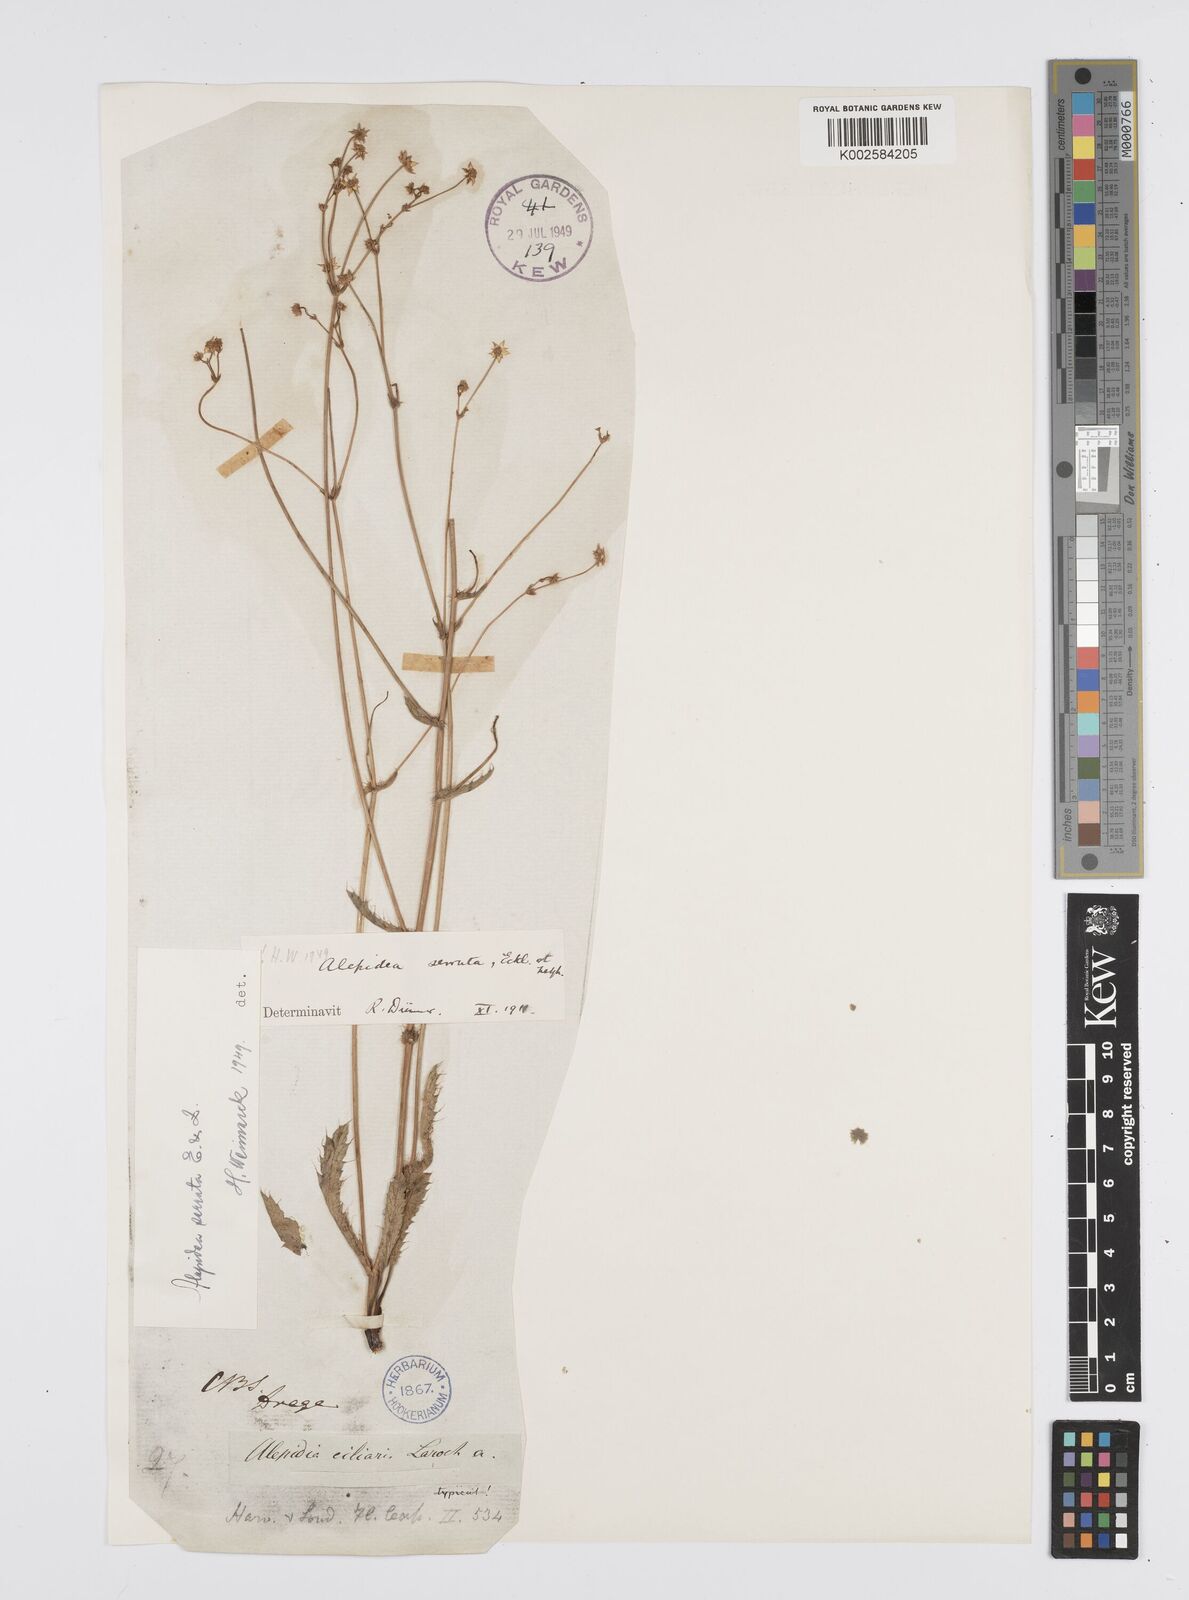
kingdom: Plantae
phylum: Tracheophyta
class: Magnoliopsida
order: Apiales
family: Apiaceae
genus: Alepidea
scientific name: Alepidea serrata
